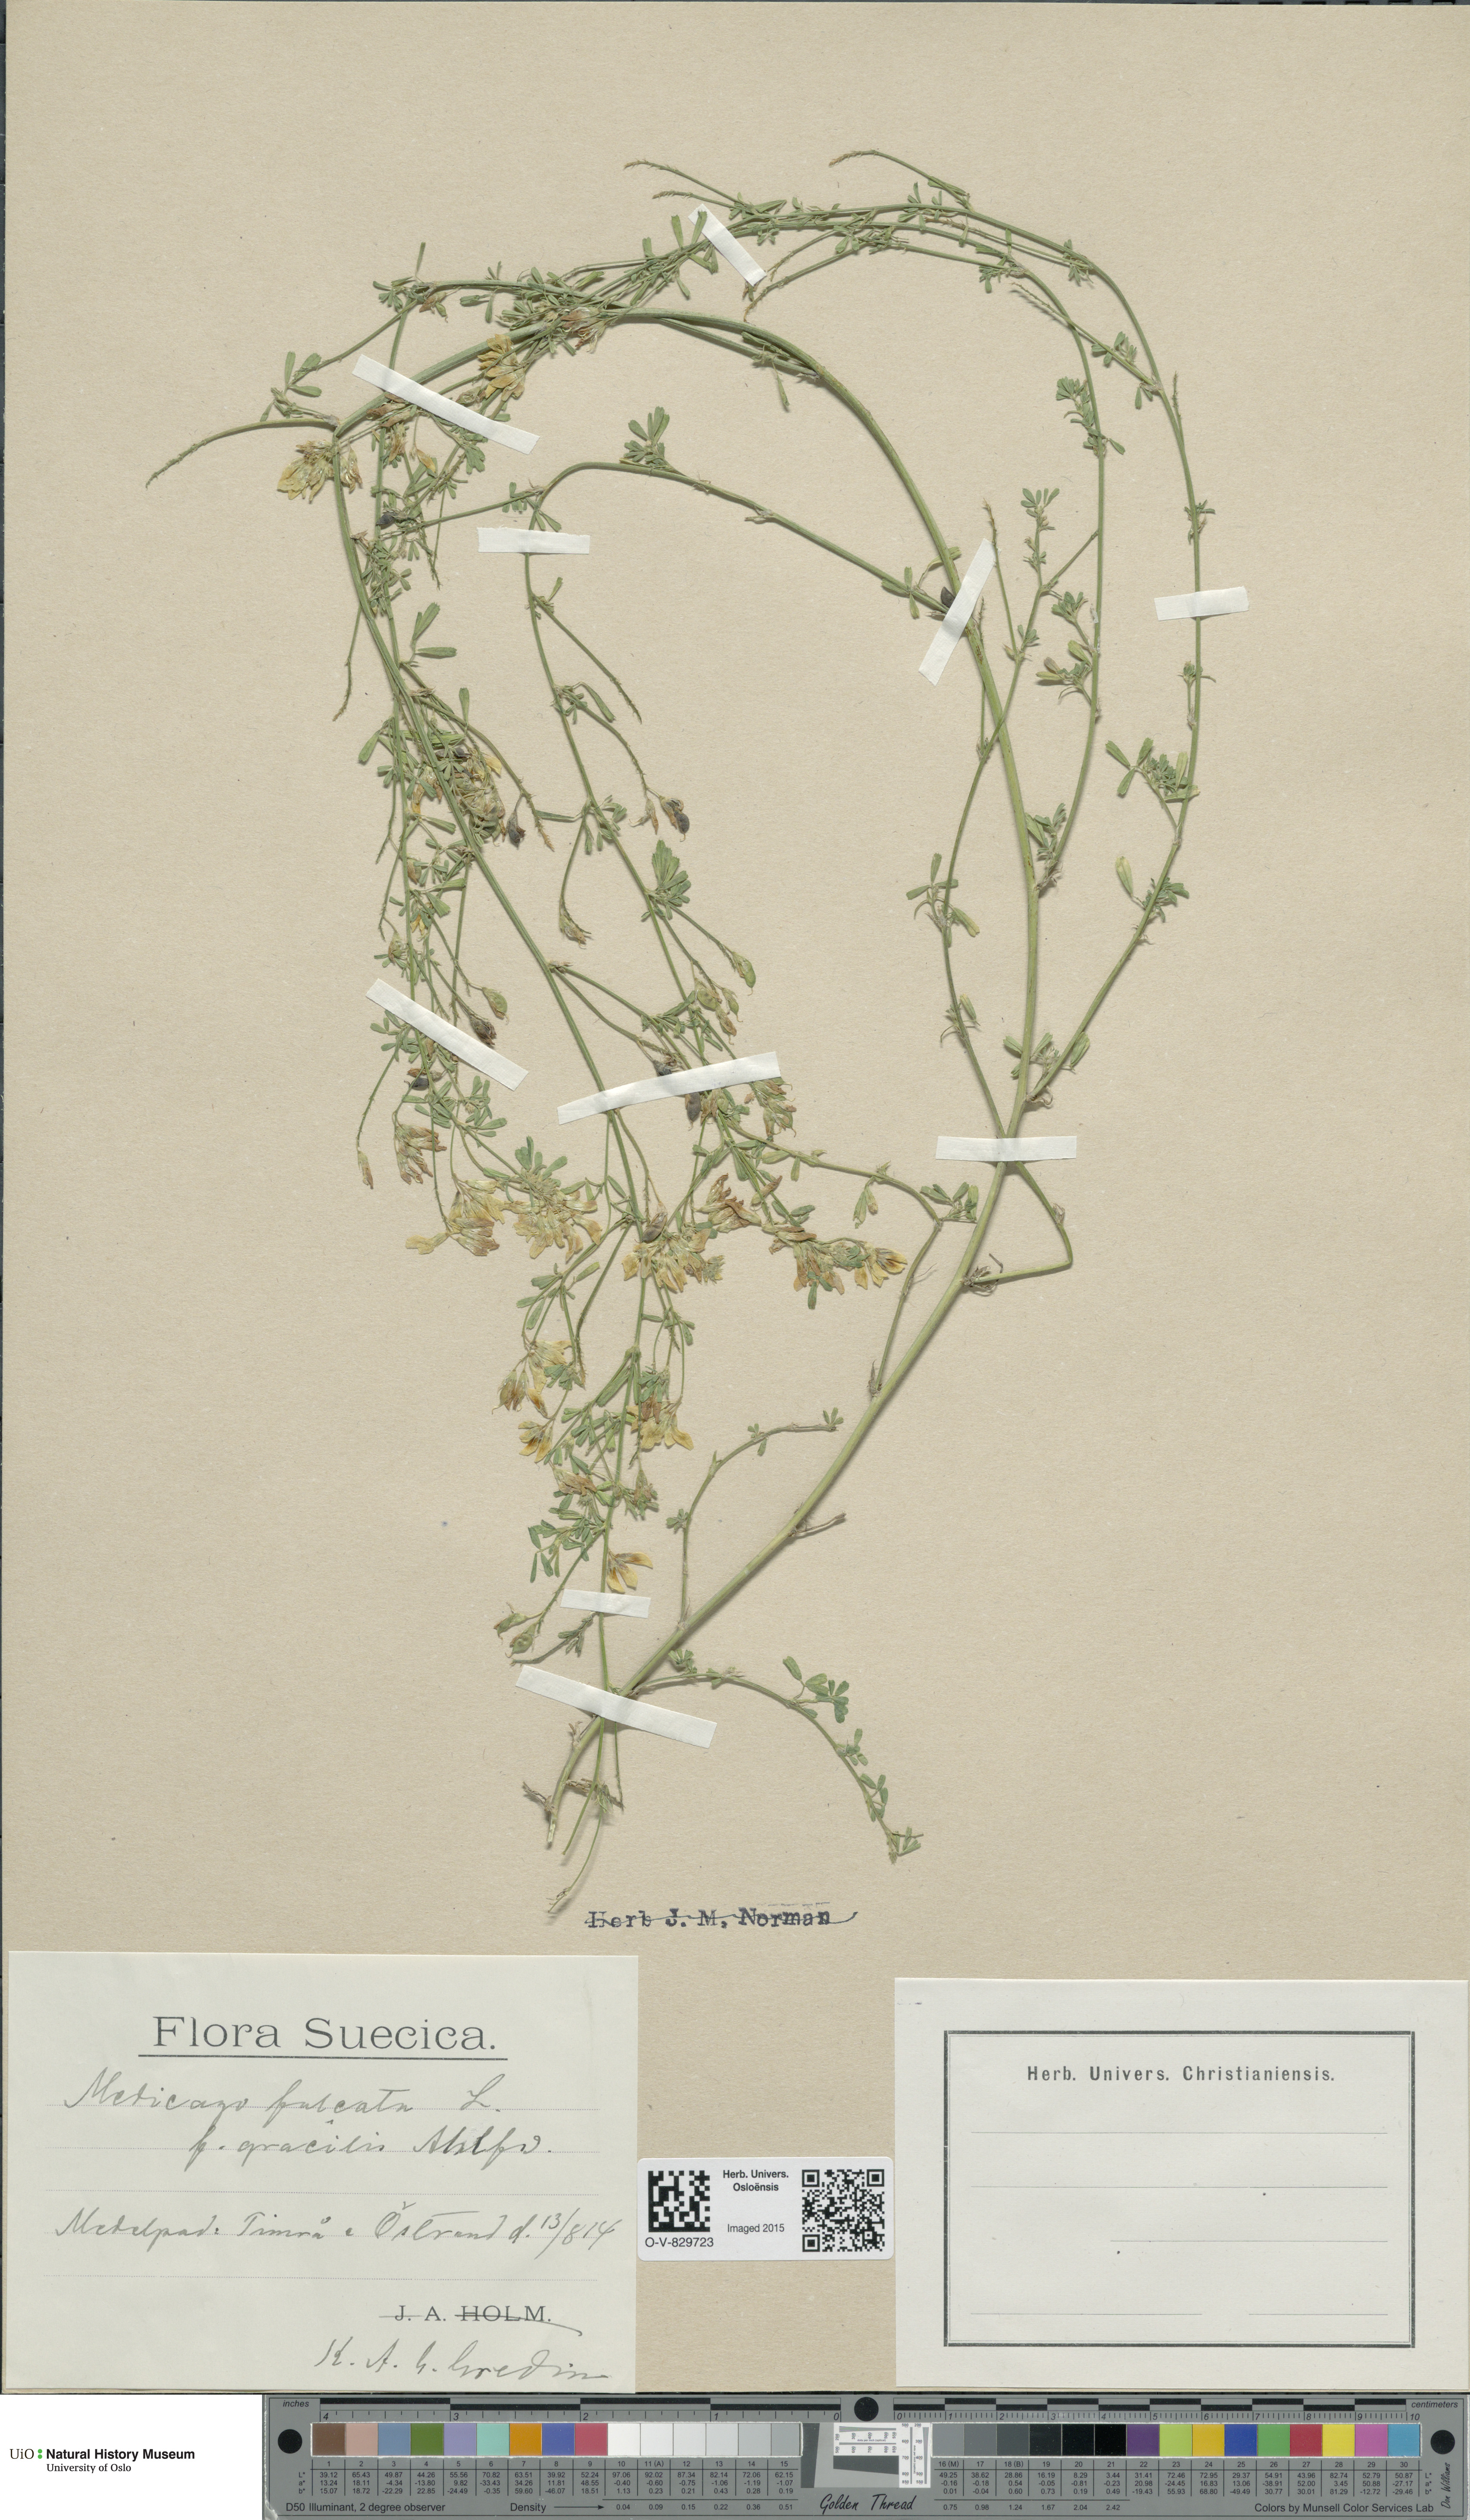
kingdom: Plantae
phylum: Tracheophyta
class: Magnoliopsida
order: Fabales
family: Fabaceae
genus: Medicago
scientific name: Medicago falcata
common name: Sickle medick
